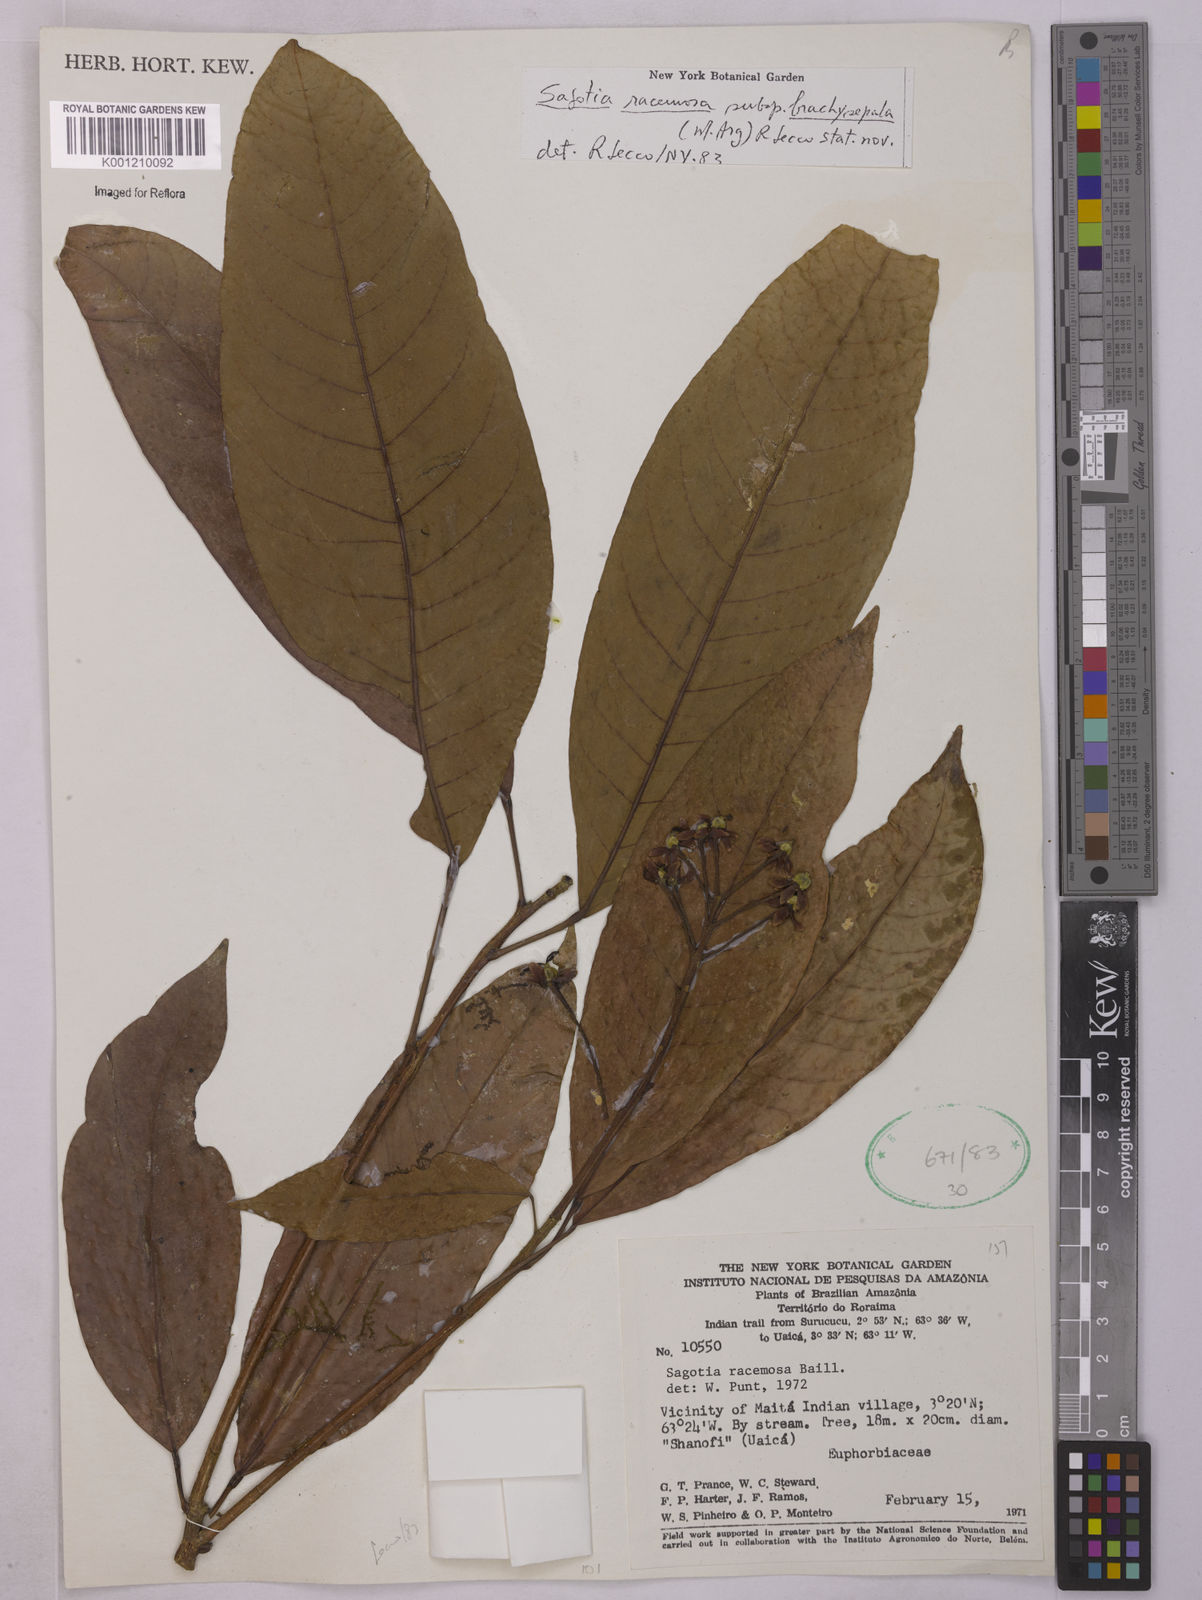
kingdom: Plantae
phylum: Tracheophyta
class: Magnoliopsida
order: Malpighiales
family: Euphorbiaceae
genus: Sagotia
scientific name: Sagotia racemosa
